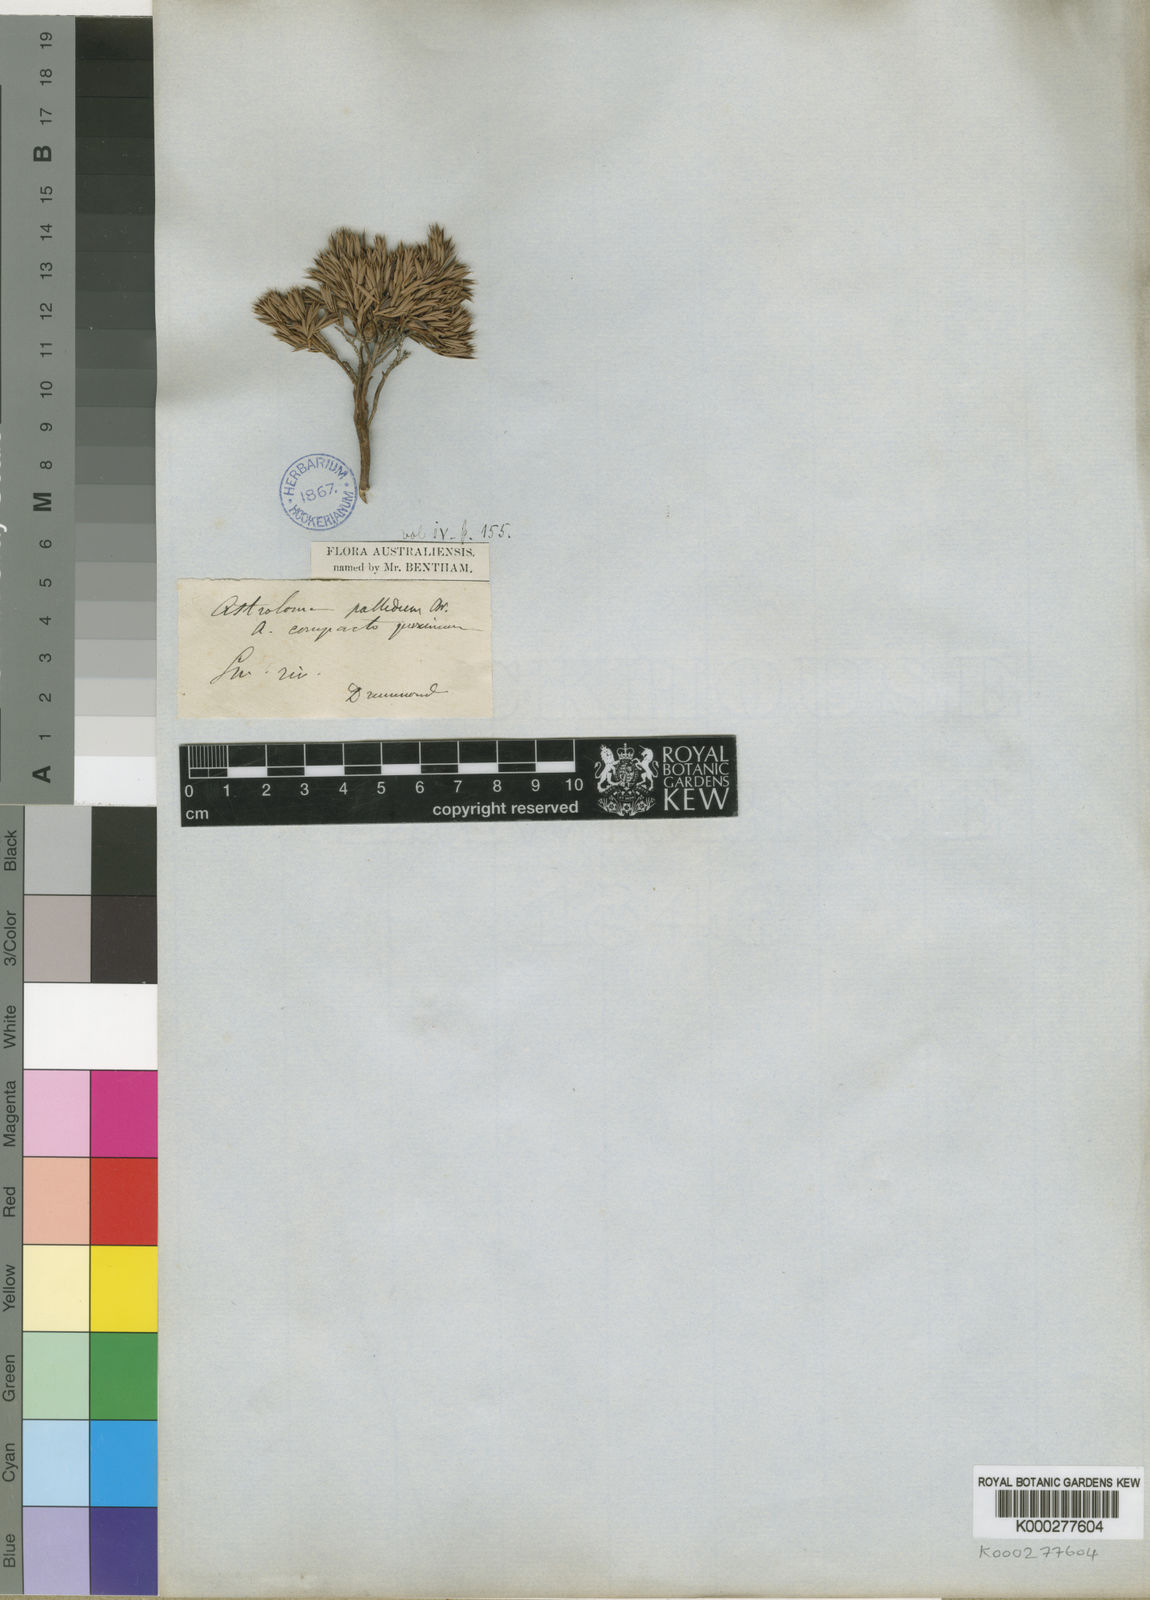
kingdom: Plantae
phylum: Tracheophyta
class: Magnoliopsida
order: Ericales
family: Ericaceae
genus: Styphelia
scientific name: Styphelia pallida
